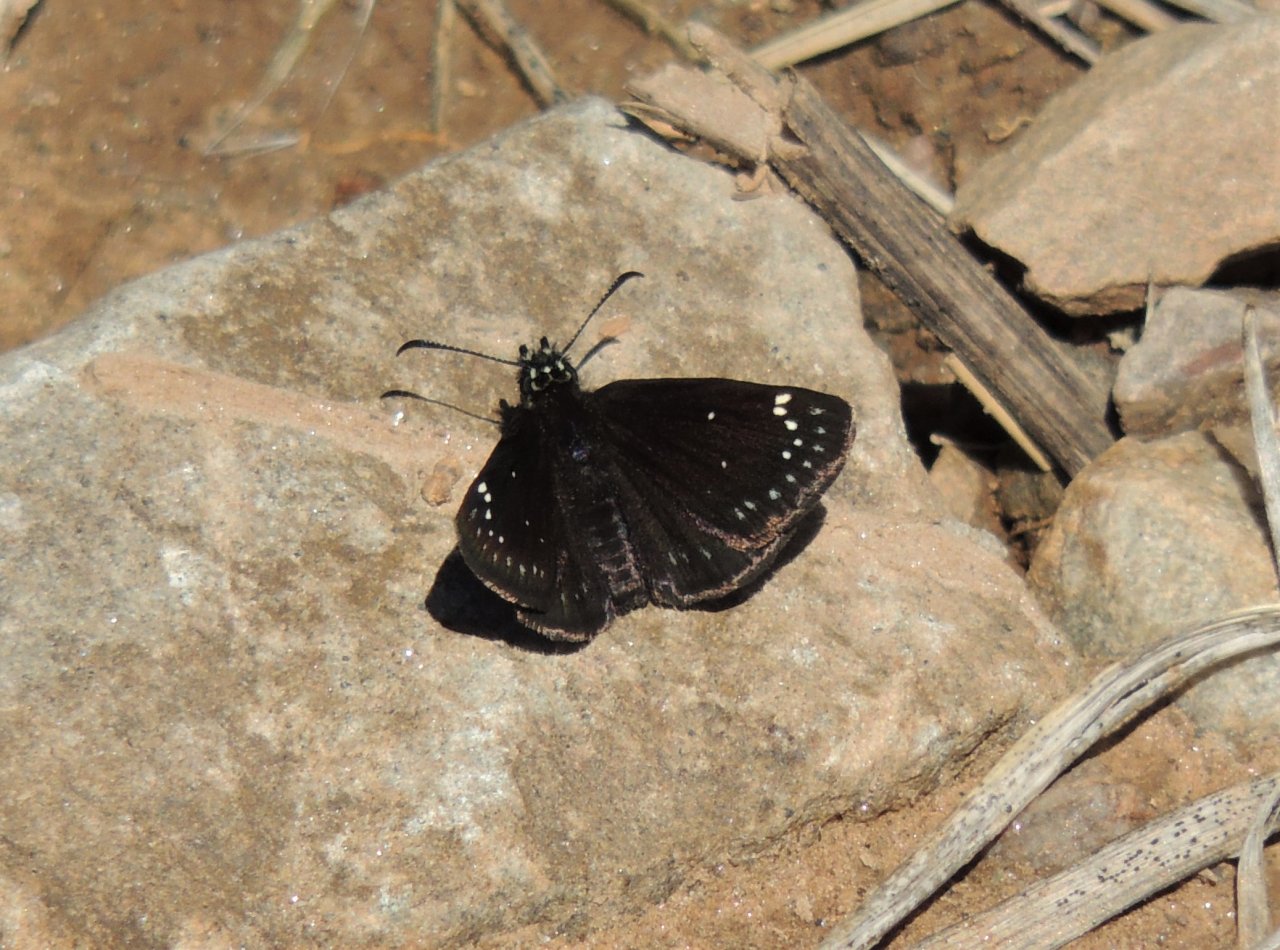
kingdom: Animalia
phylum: Arthropoda
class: Insecta
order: Lepidoptera
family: Hesperiidae
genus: Pholisora
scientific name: Pholisora catullus
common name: Common Sootywing
